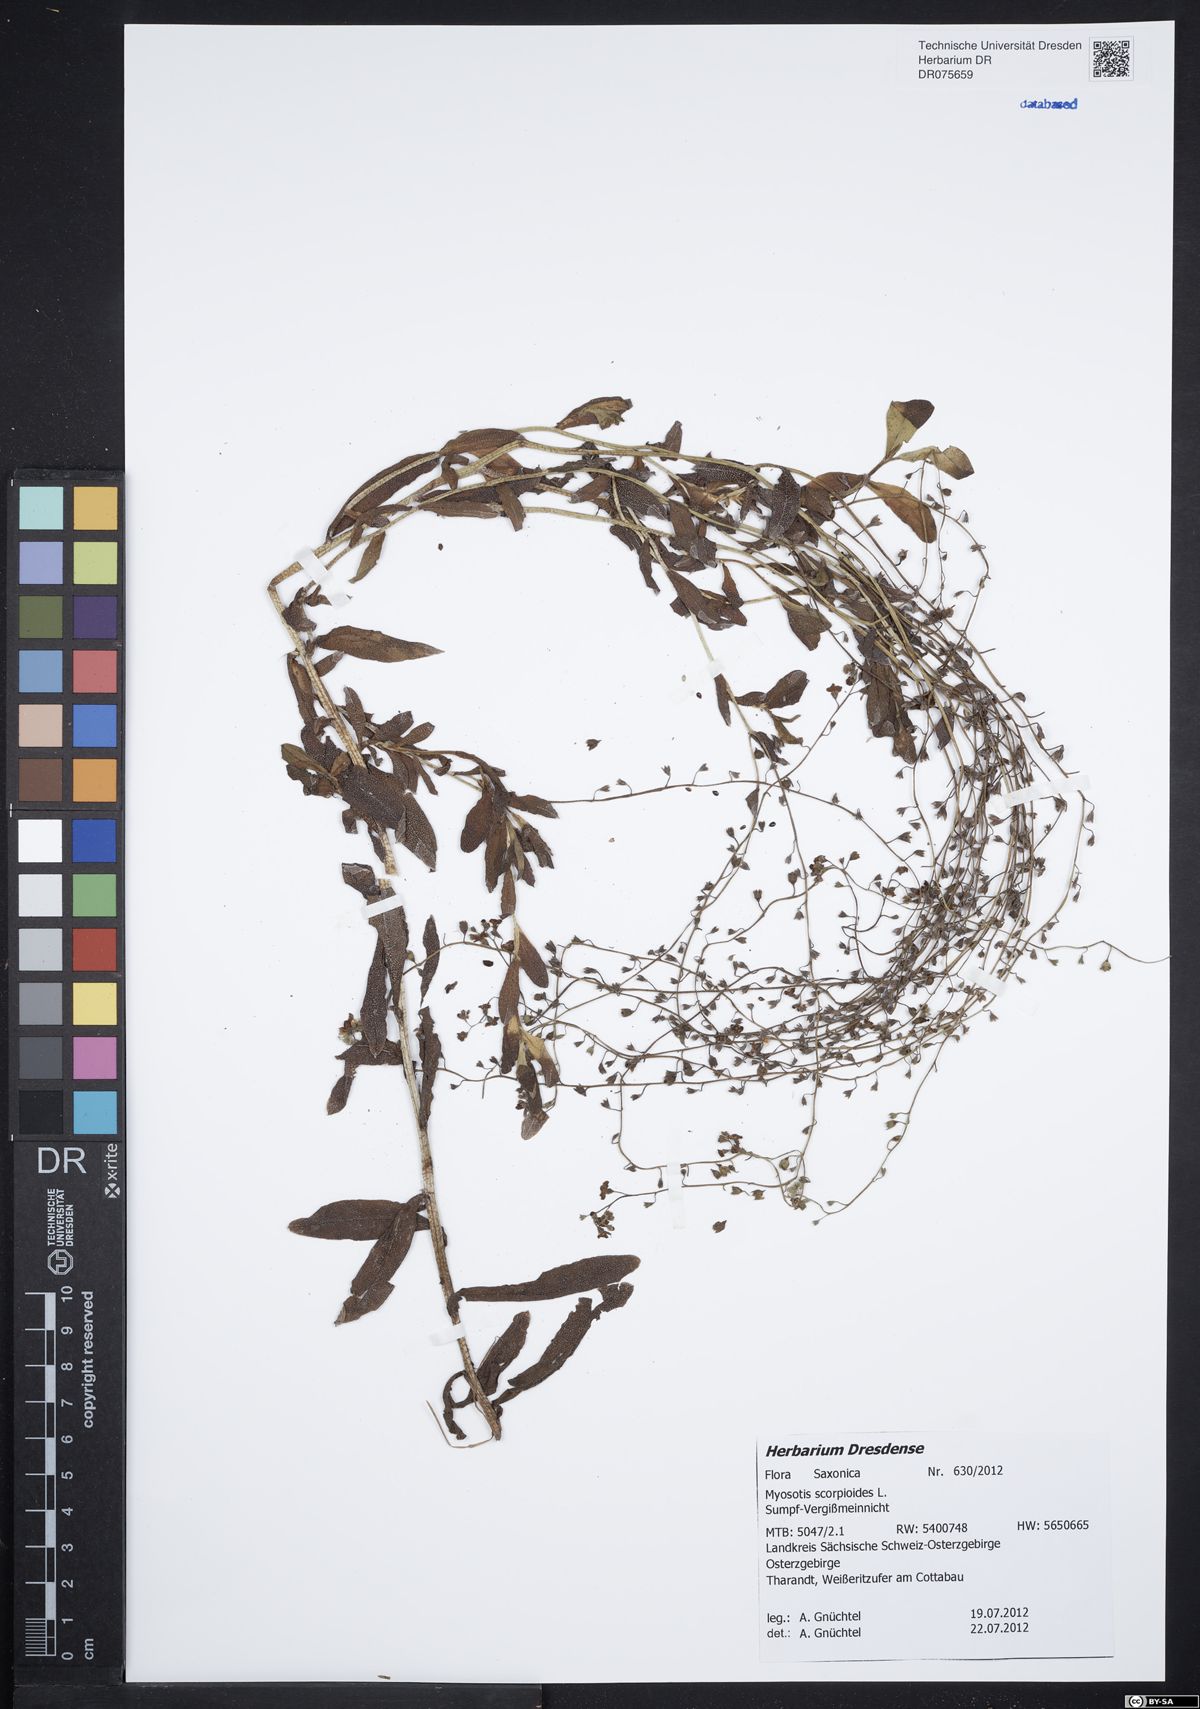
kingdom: Plantae
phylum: Tracheophyta
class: Magnoliopsida
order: Boraginales
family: Boraginaceae
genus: Myosotis
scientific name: Myosotis scorpioides
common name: Water forget-me-not
